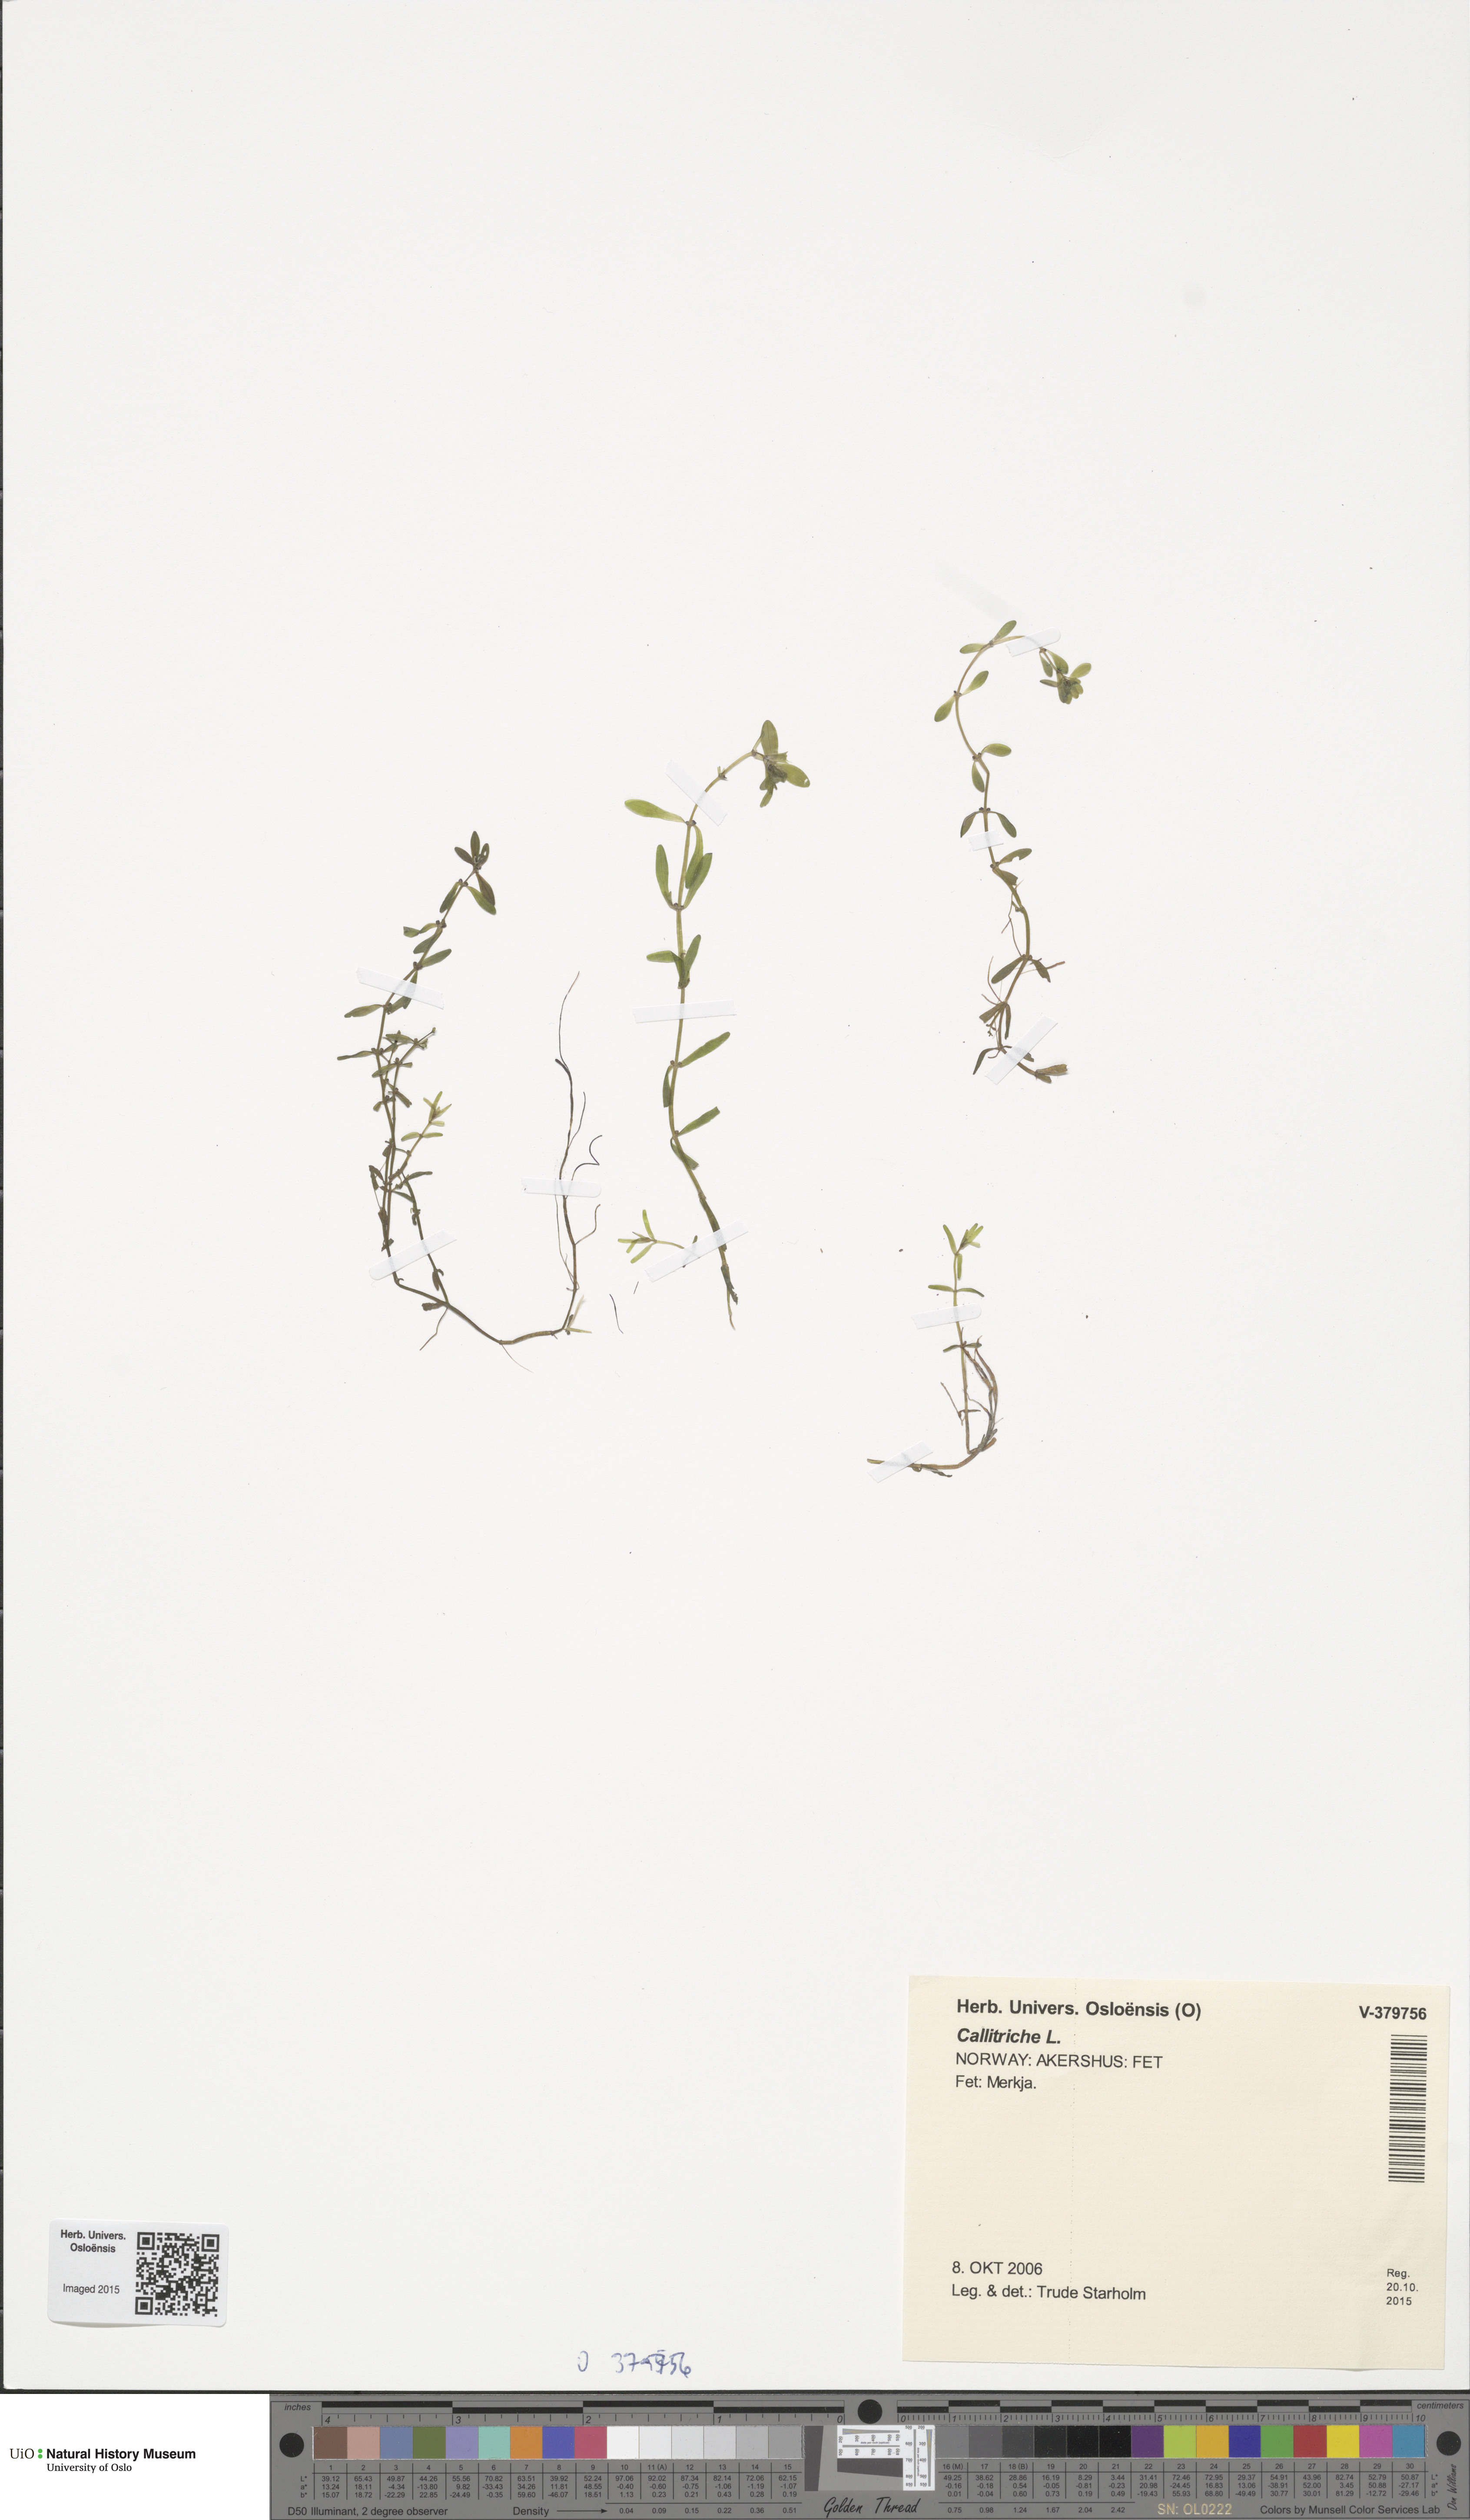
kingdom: Plantae
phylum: Tracheophyta
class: Magnoliopsida
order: Lamiales
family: Plantaginaceae
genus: Callitriche
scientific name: Callitriche
